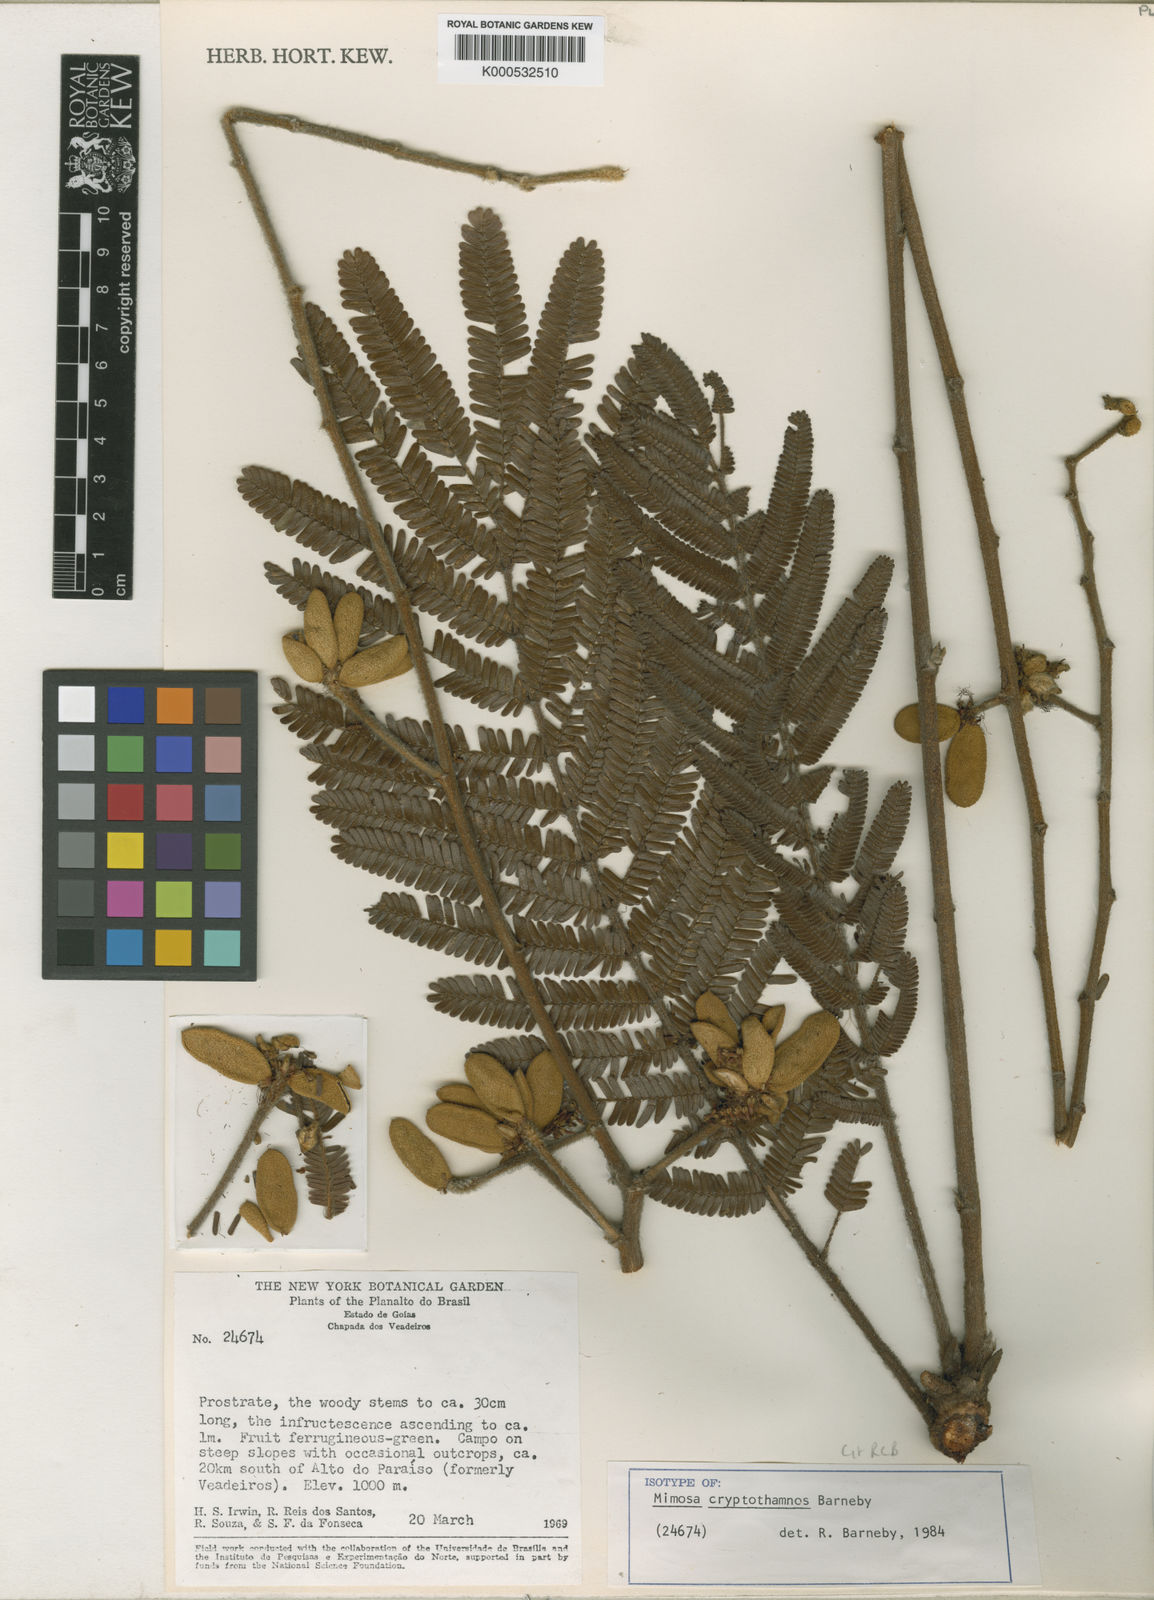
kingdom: Plantae
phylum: Tracheophyta
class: Magnoliopsida
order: Fabales
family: Fabaceae
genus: Mimosa
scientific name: Mimosa cryptothamnos
